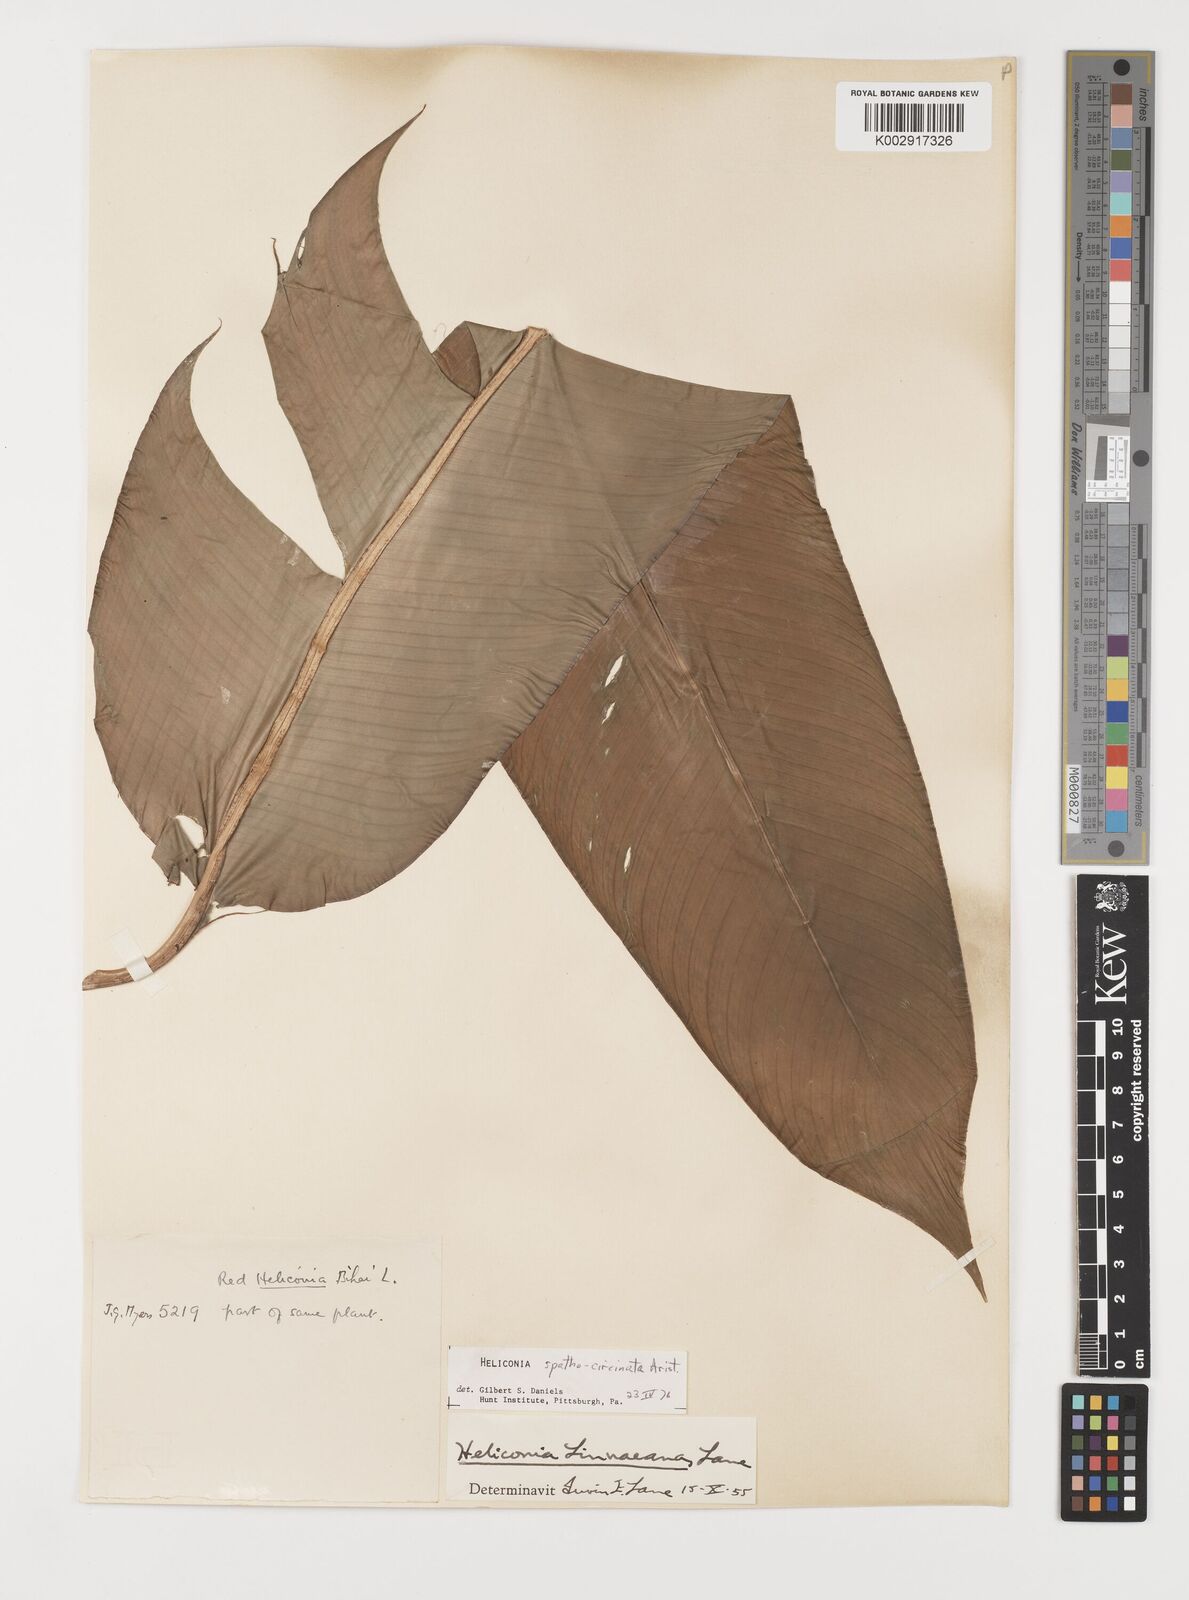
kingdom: Plantae
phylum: Tracheophyta
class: Liliopsida
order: Zingiberales
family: Heliconiaceae
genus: Heliconia
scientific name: Heliconia spathocircinata
